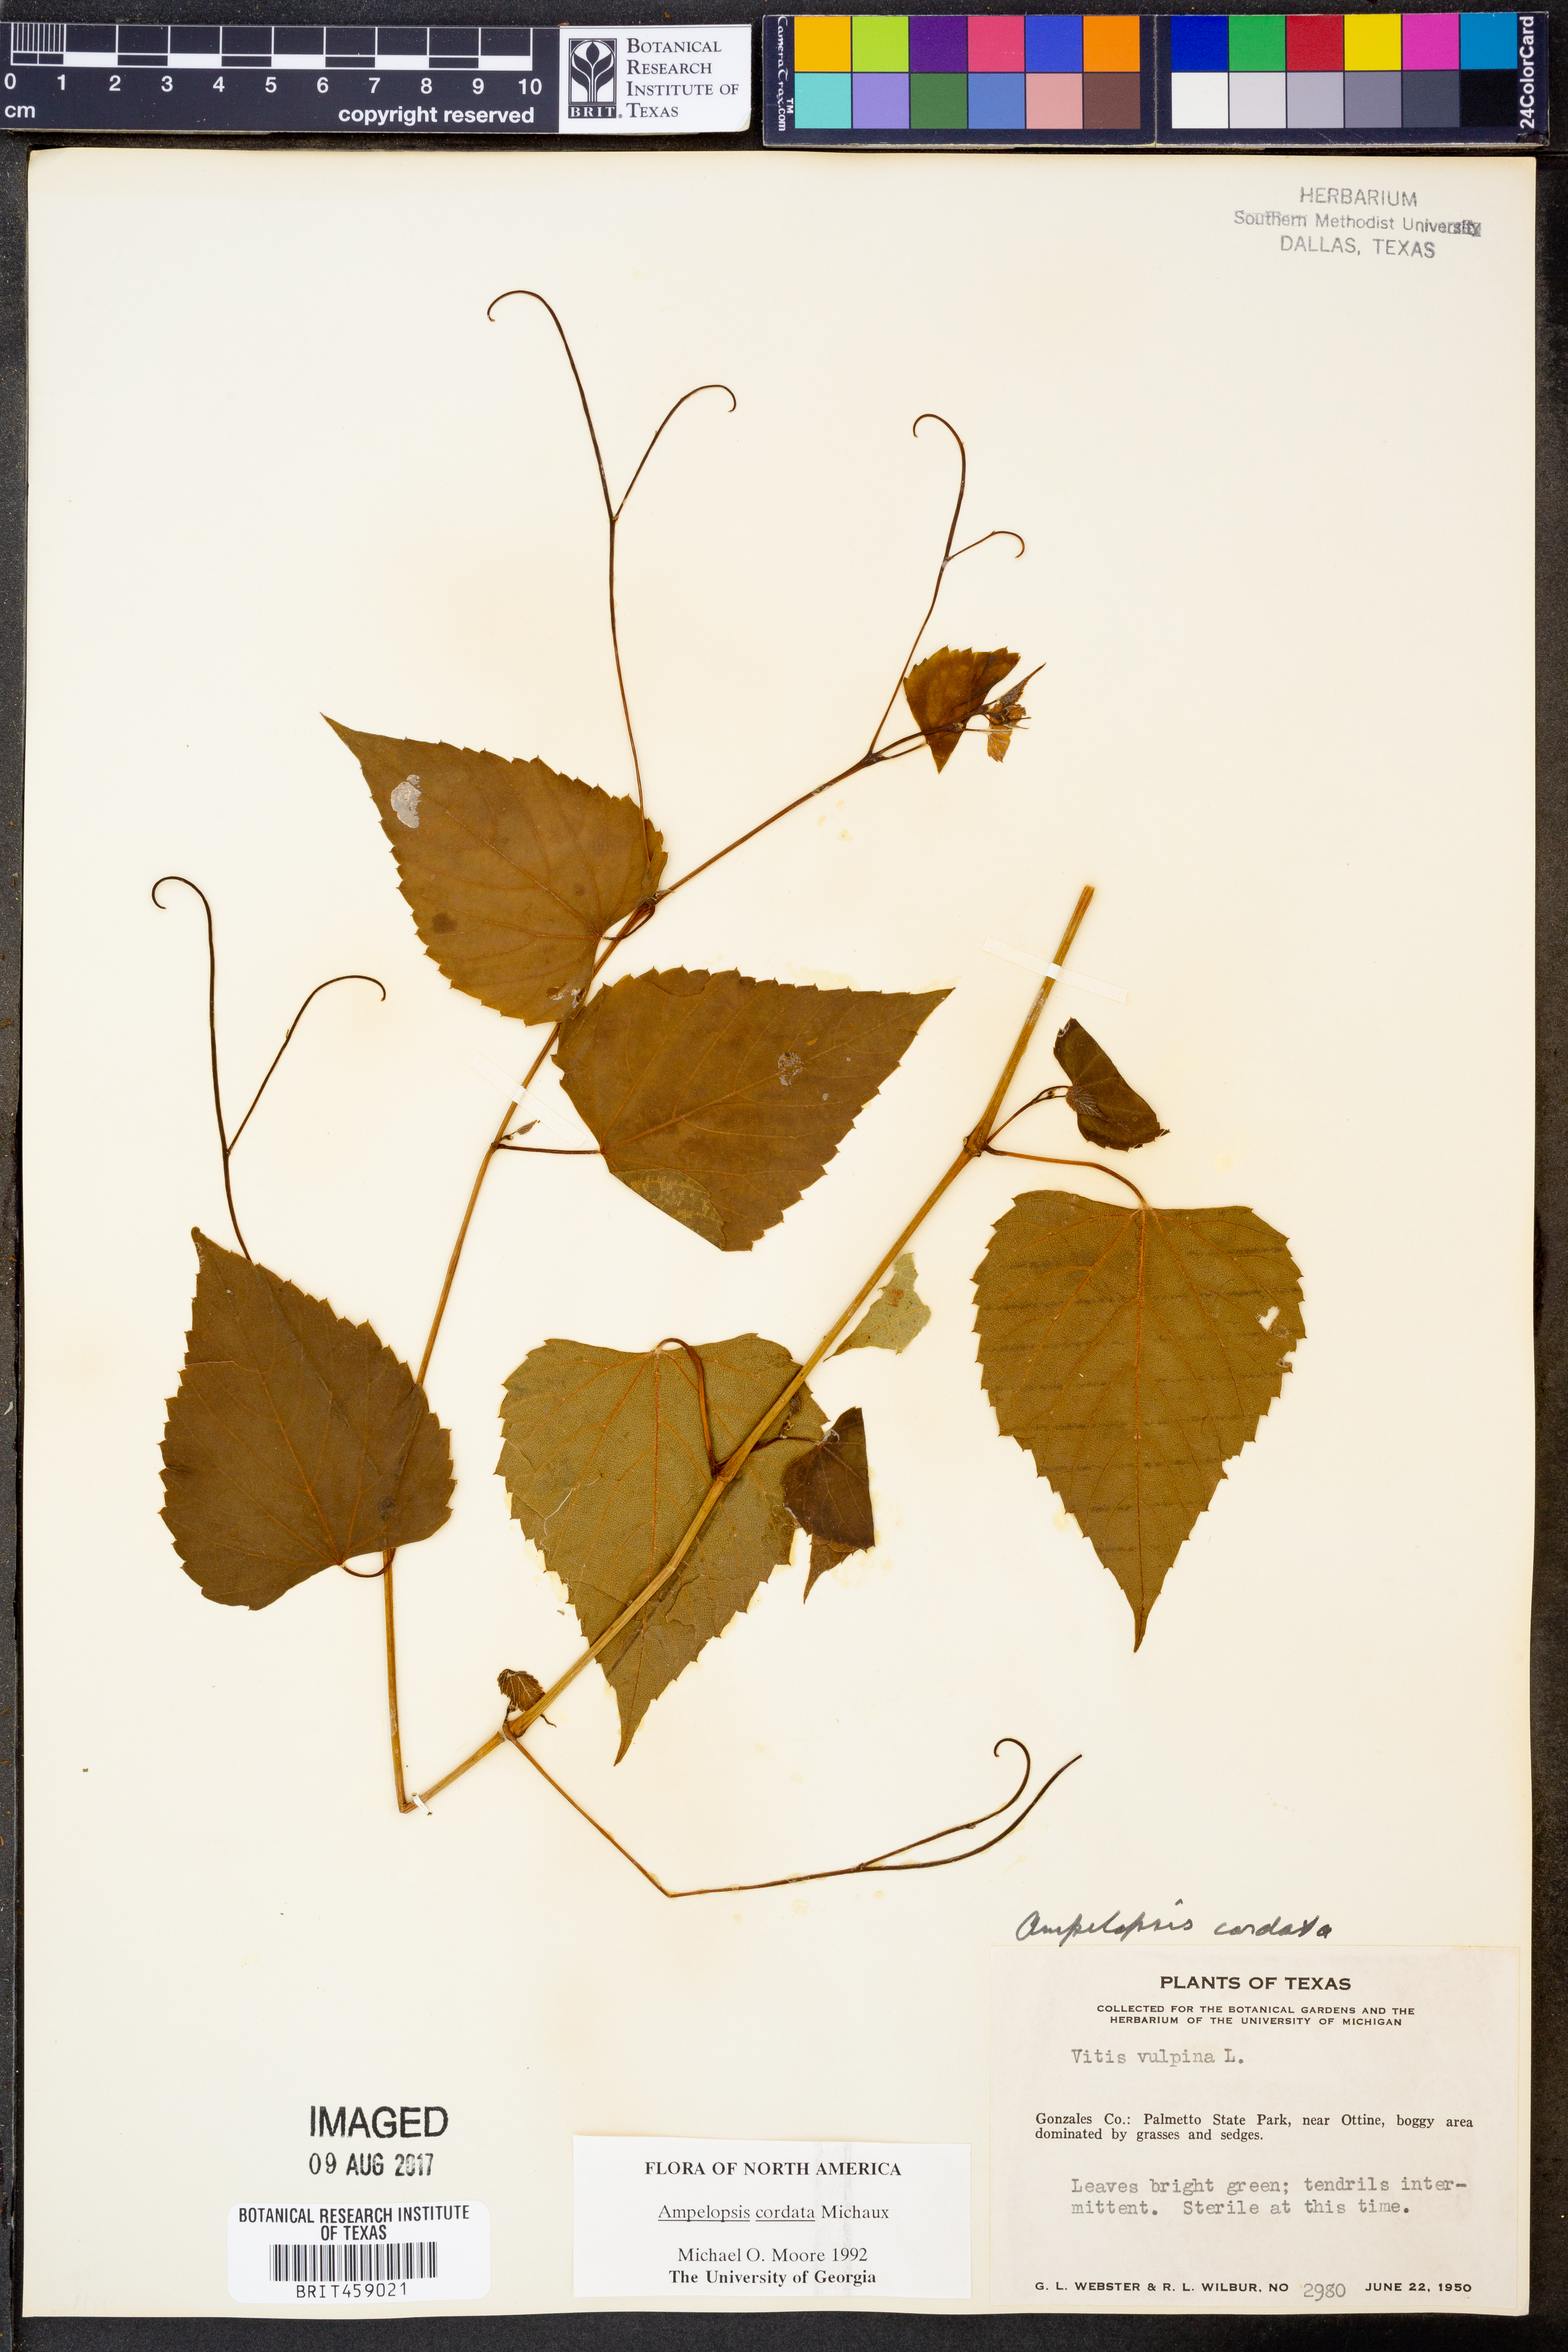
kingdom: Plantae
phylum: Tracheophyta
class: Magnoliopsida
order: Vitales
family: Vitaceae
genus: Ampelopsis
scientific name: Ampelopsis cordata
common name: Heart-leaf ampelopsis
